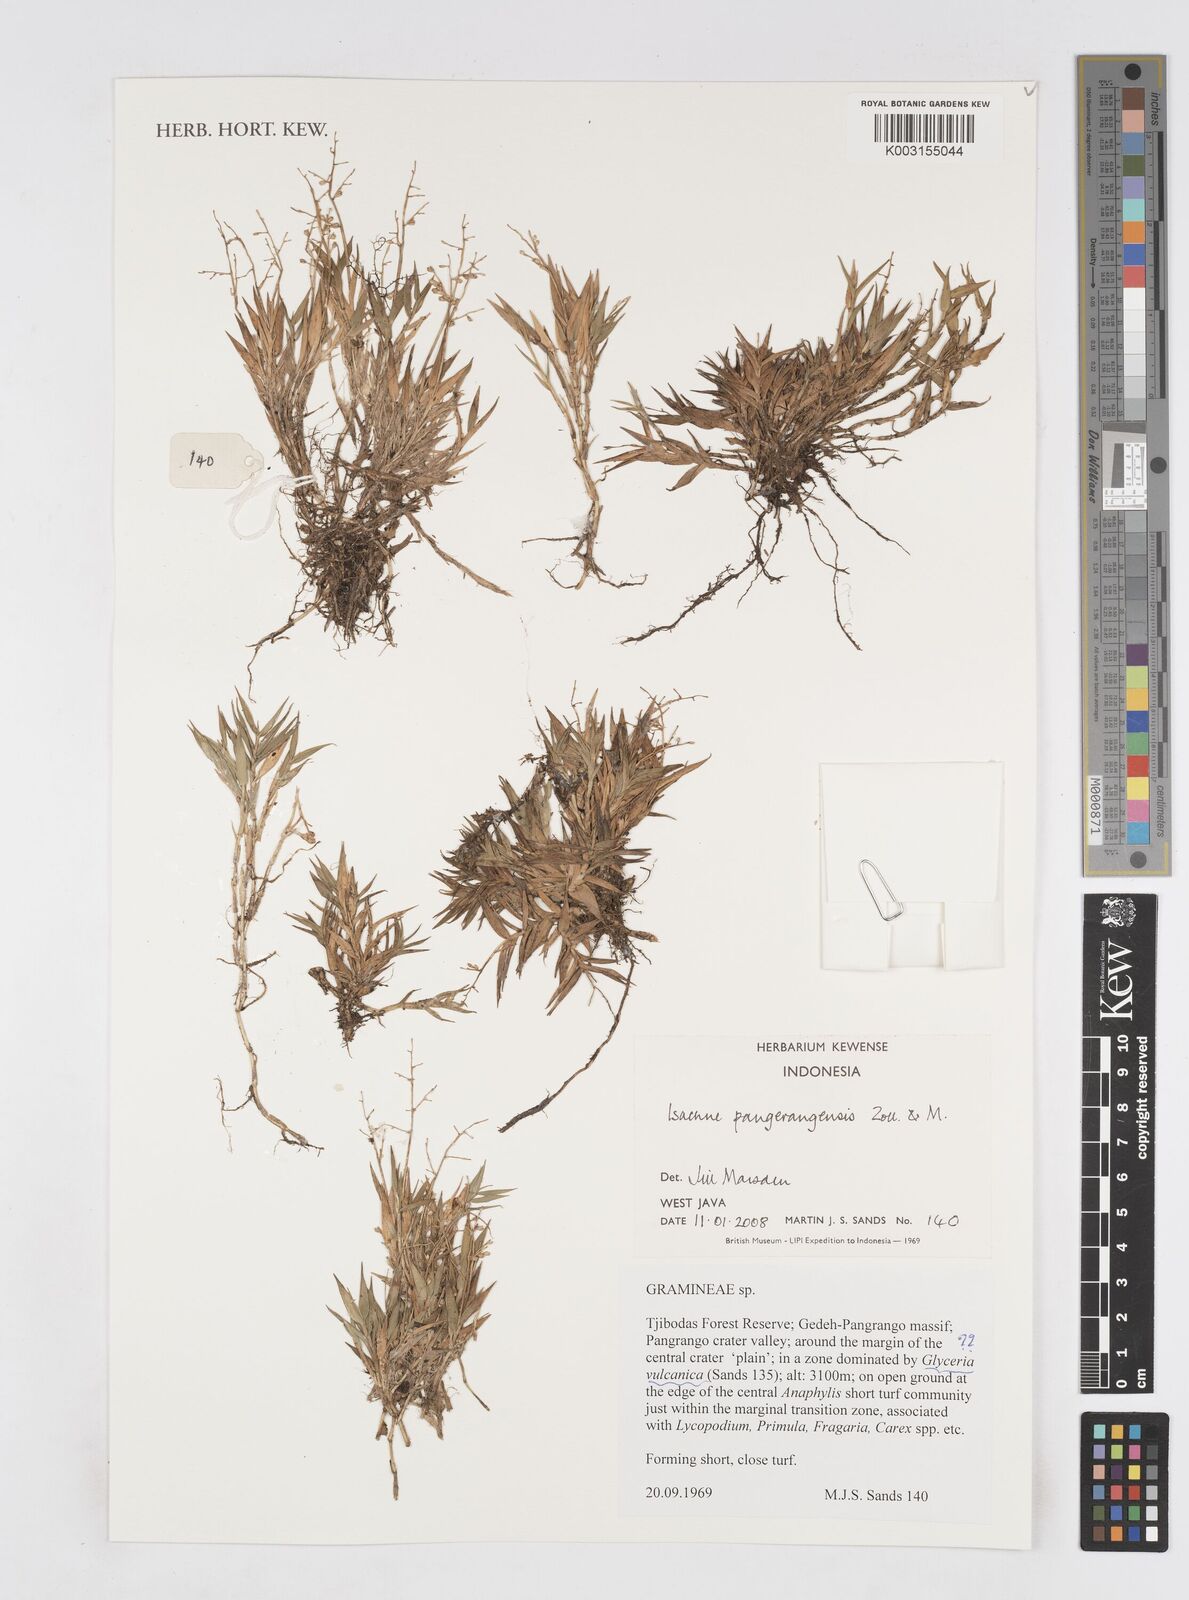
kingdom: Plantae
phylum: Tracheophyta
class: Liliopsida
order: Poales
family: Poaceae
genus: Isachne
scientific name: Isachne pangerangensis
